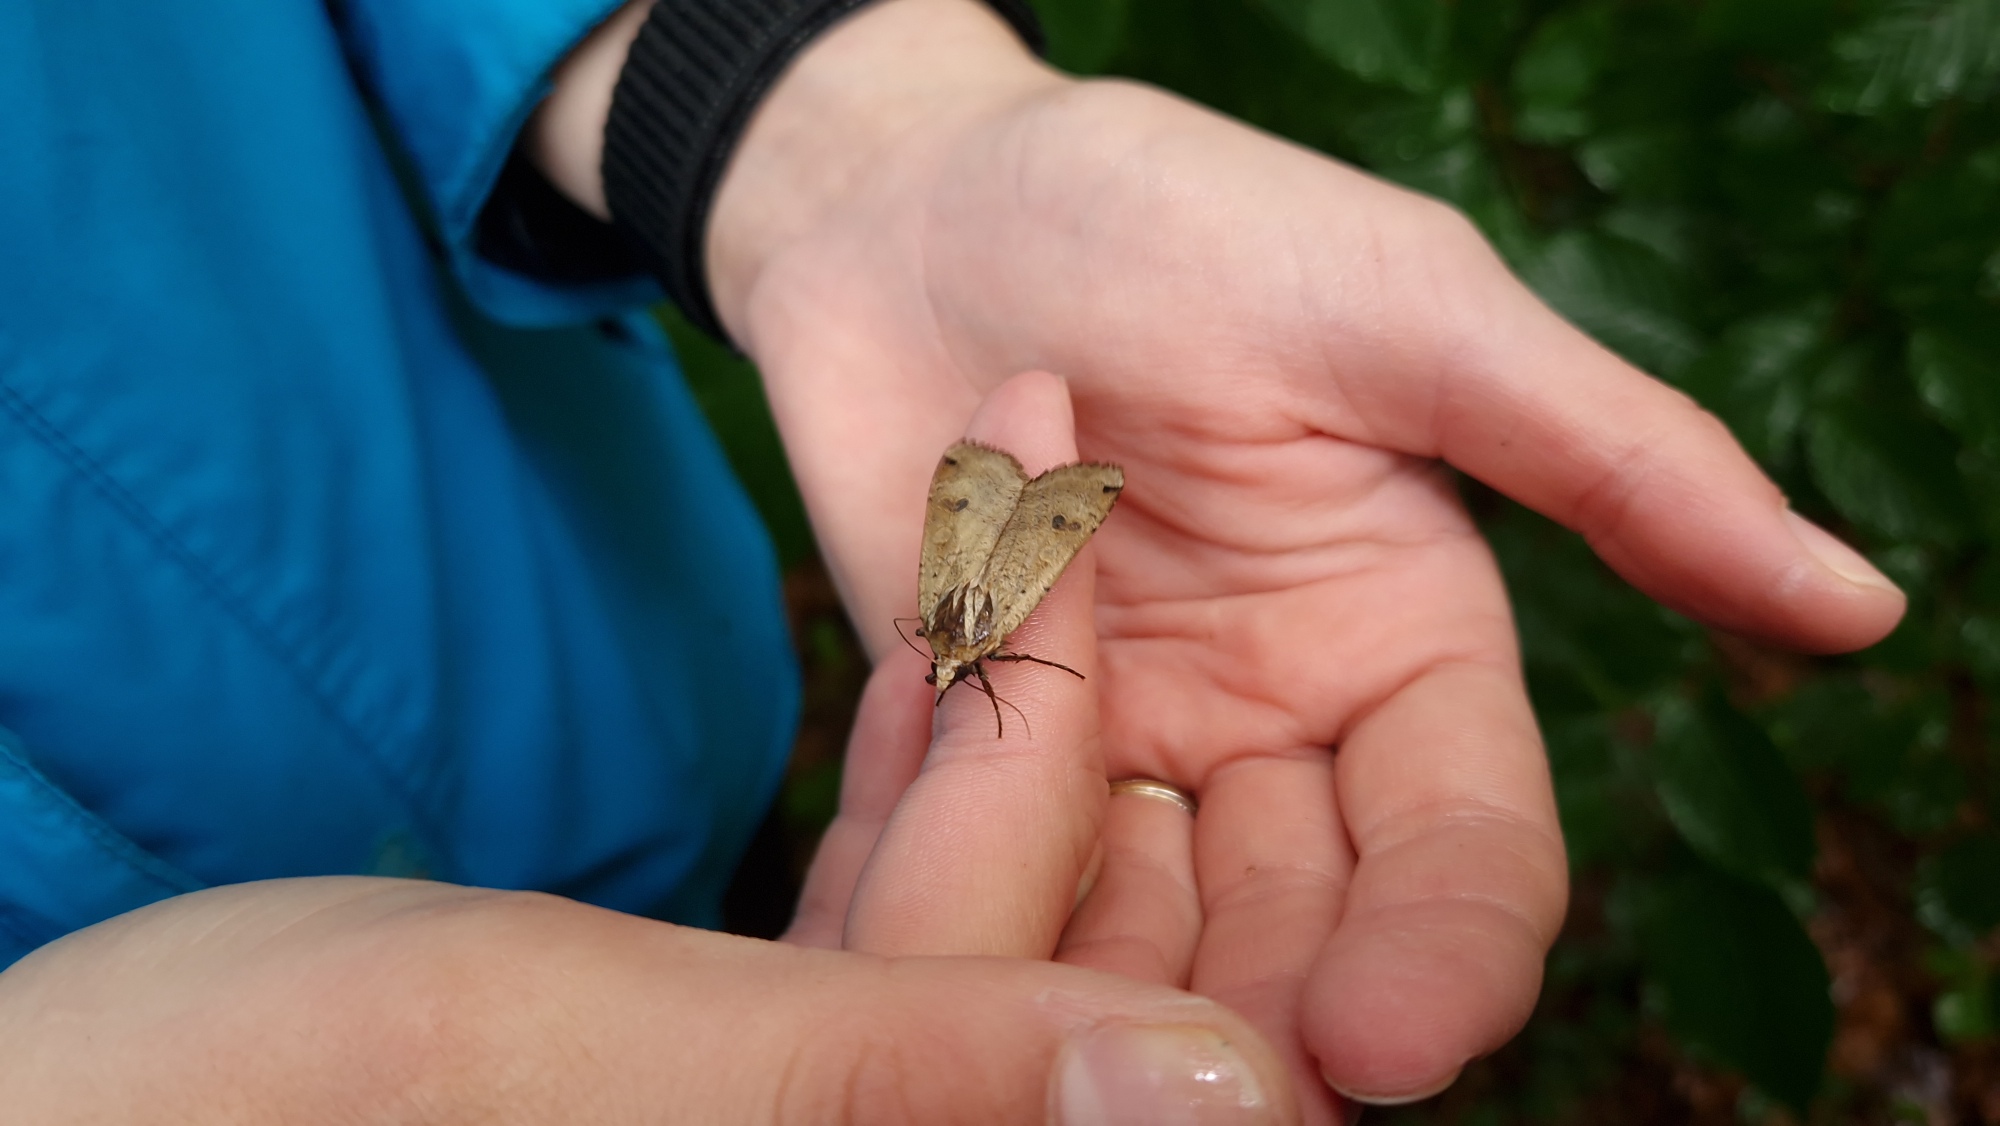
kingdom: Animalia
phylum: Arthropoda
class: Insecta
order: Lepidoptera
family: Noctuidae
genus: Noctua
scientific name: Noctua pronuba
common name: Stor smutugle
